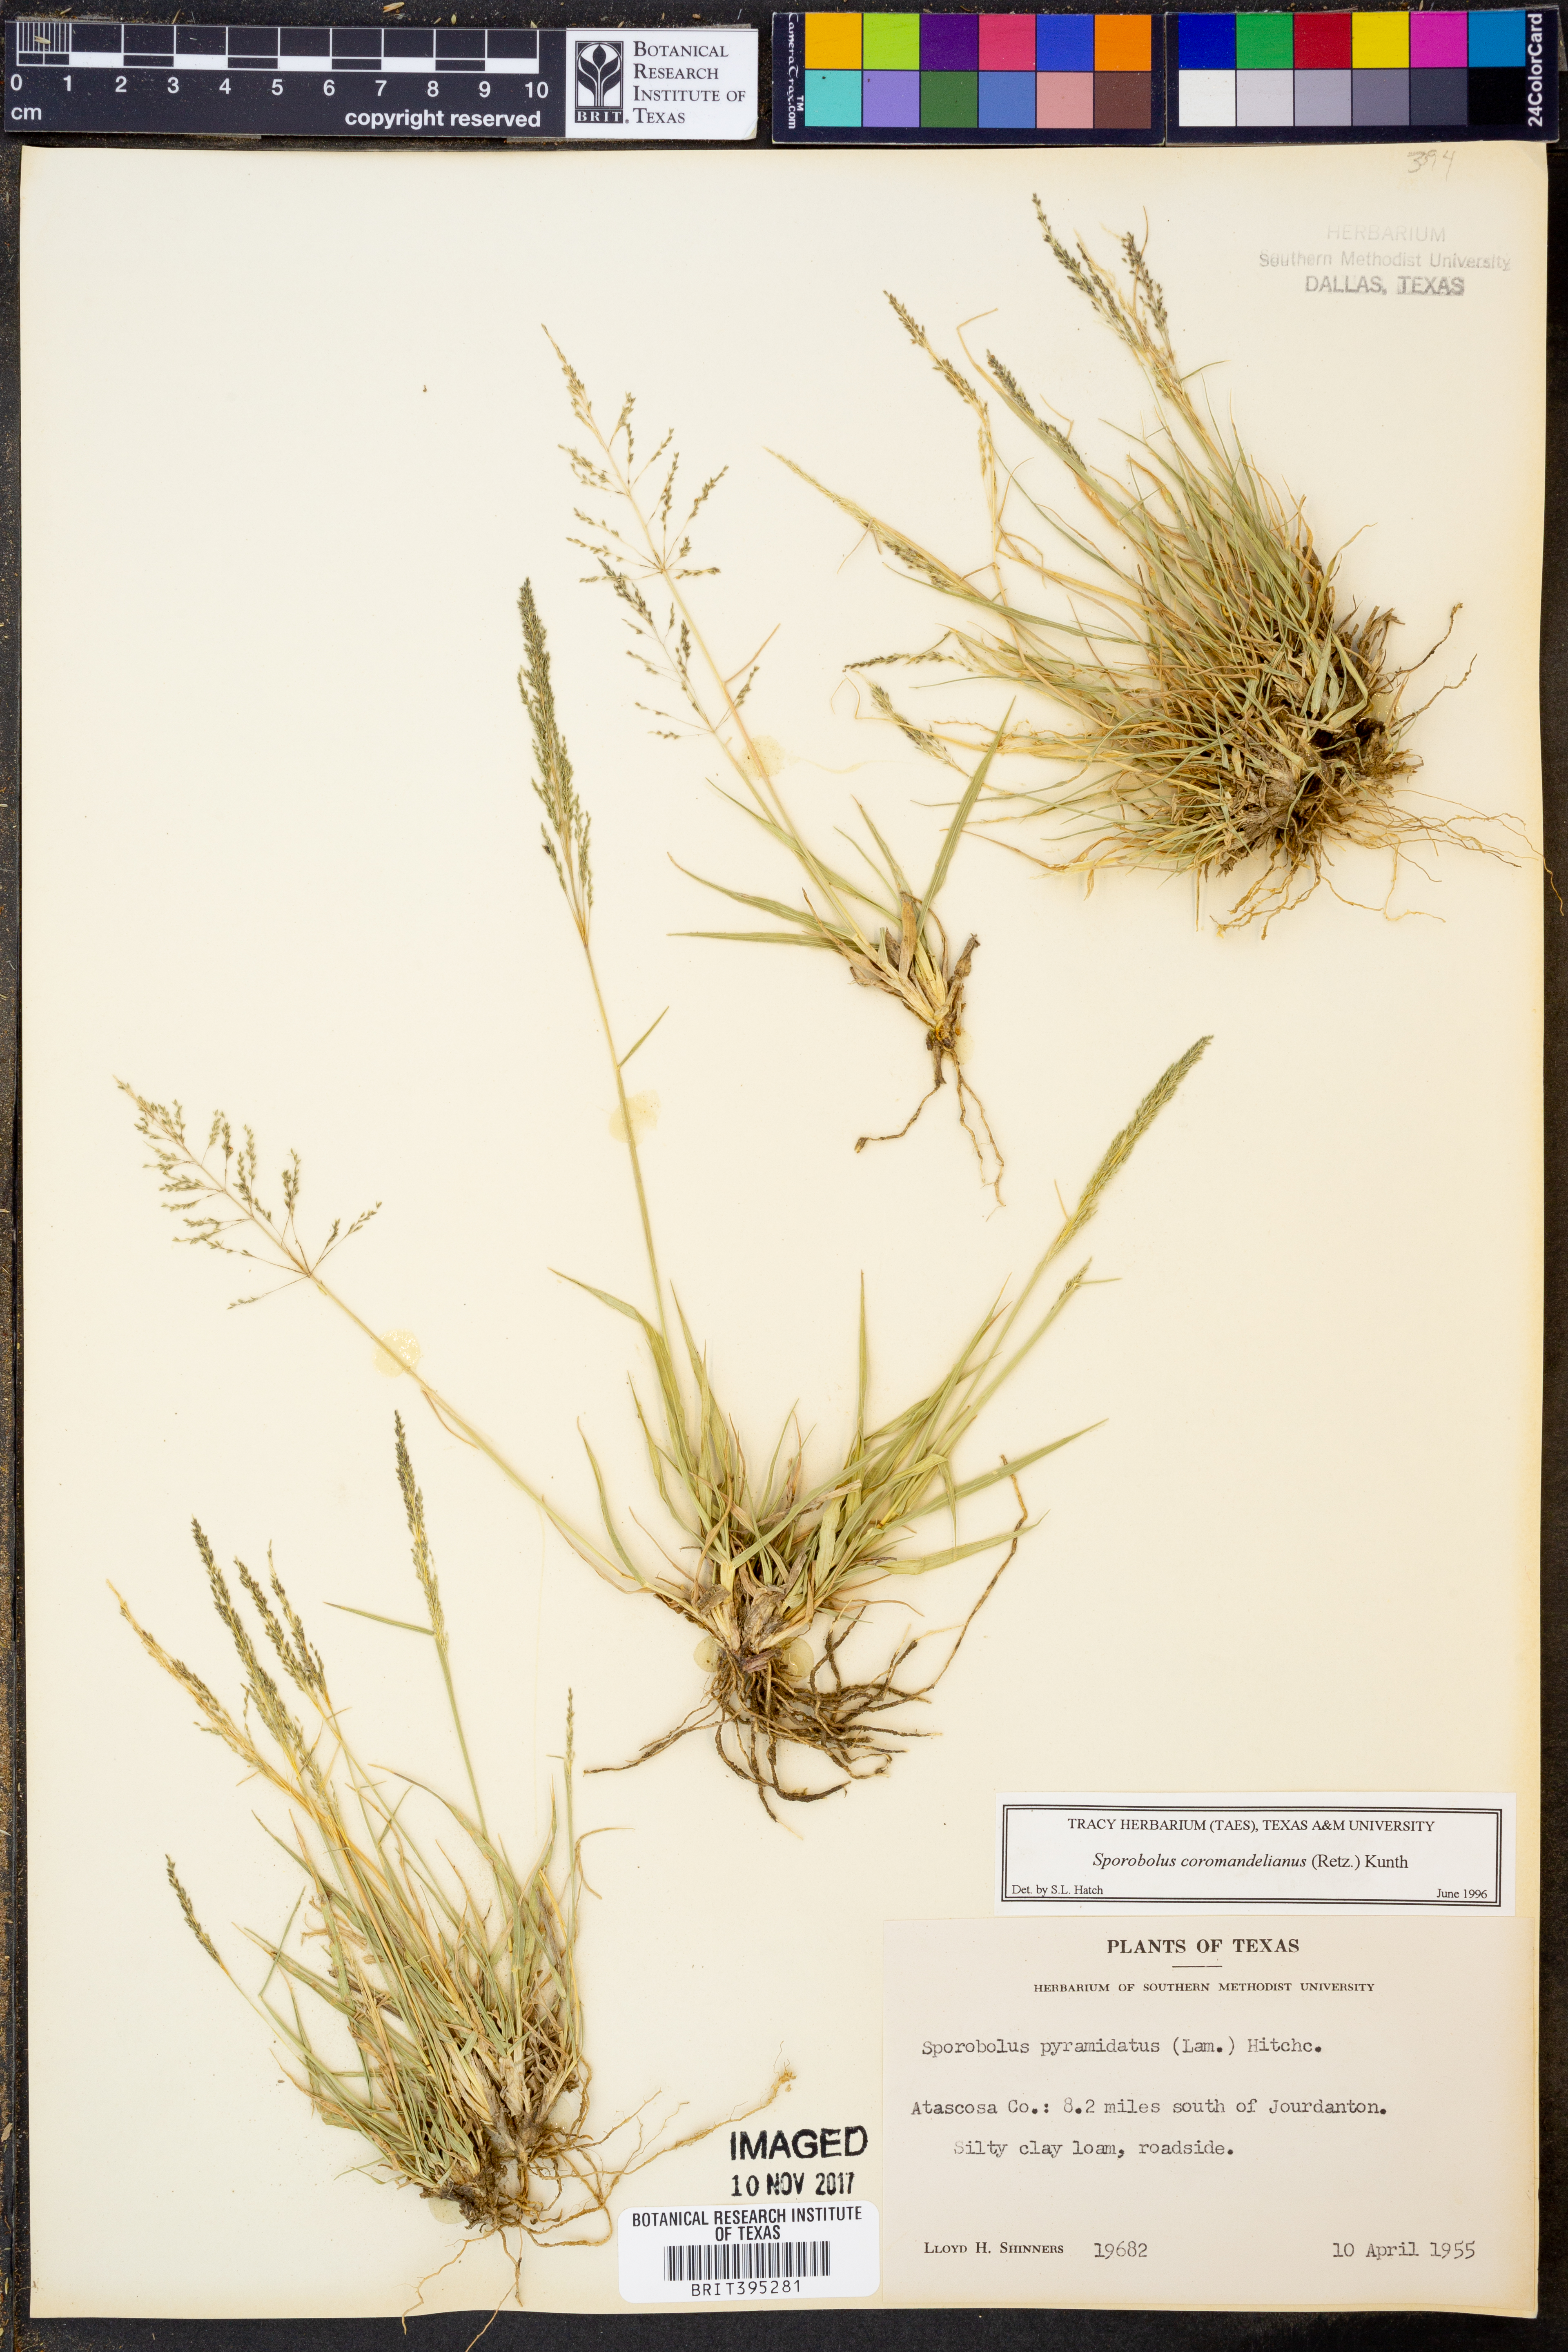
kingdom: Plantae
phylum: Tracheophyta
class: Liliopsida
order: Poales
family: Poaceae
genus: Sporobolus
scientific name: Sporobolus coromandelianus
